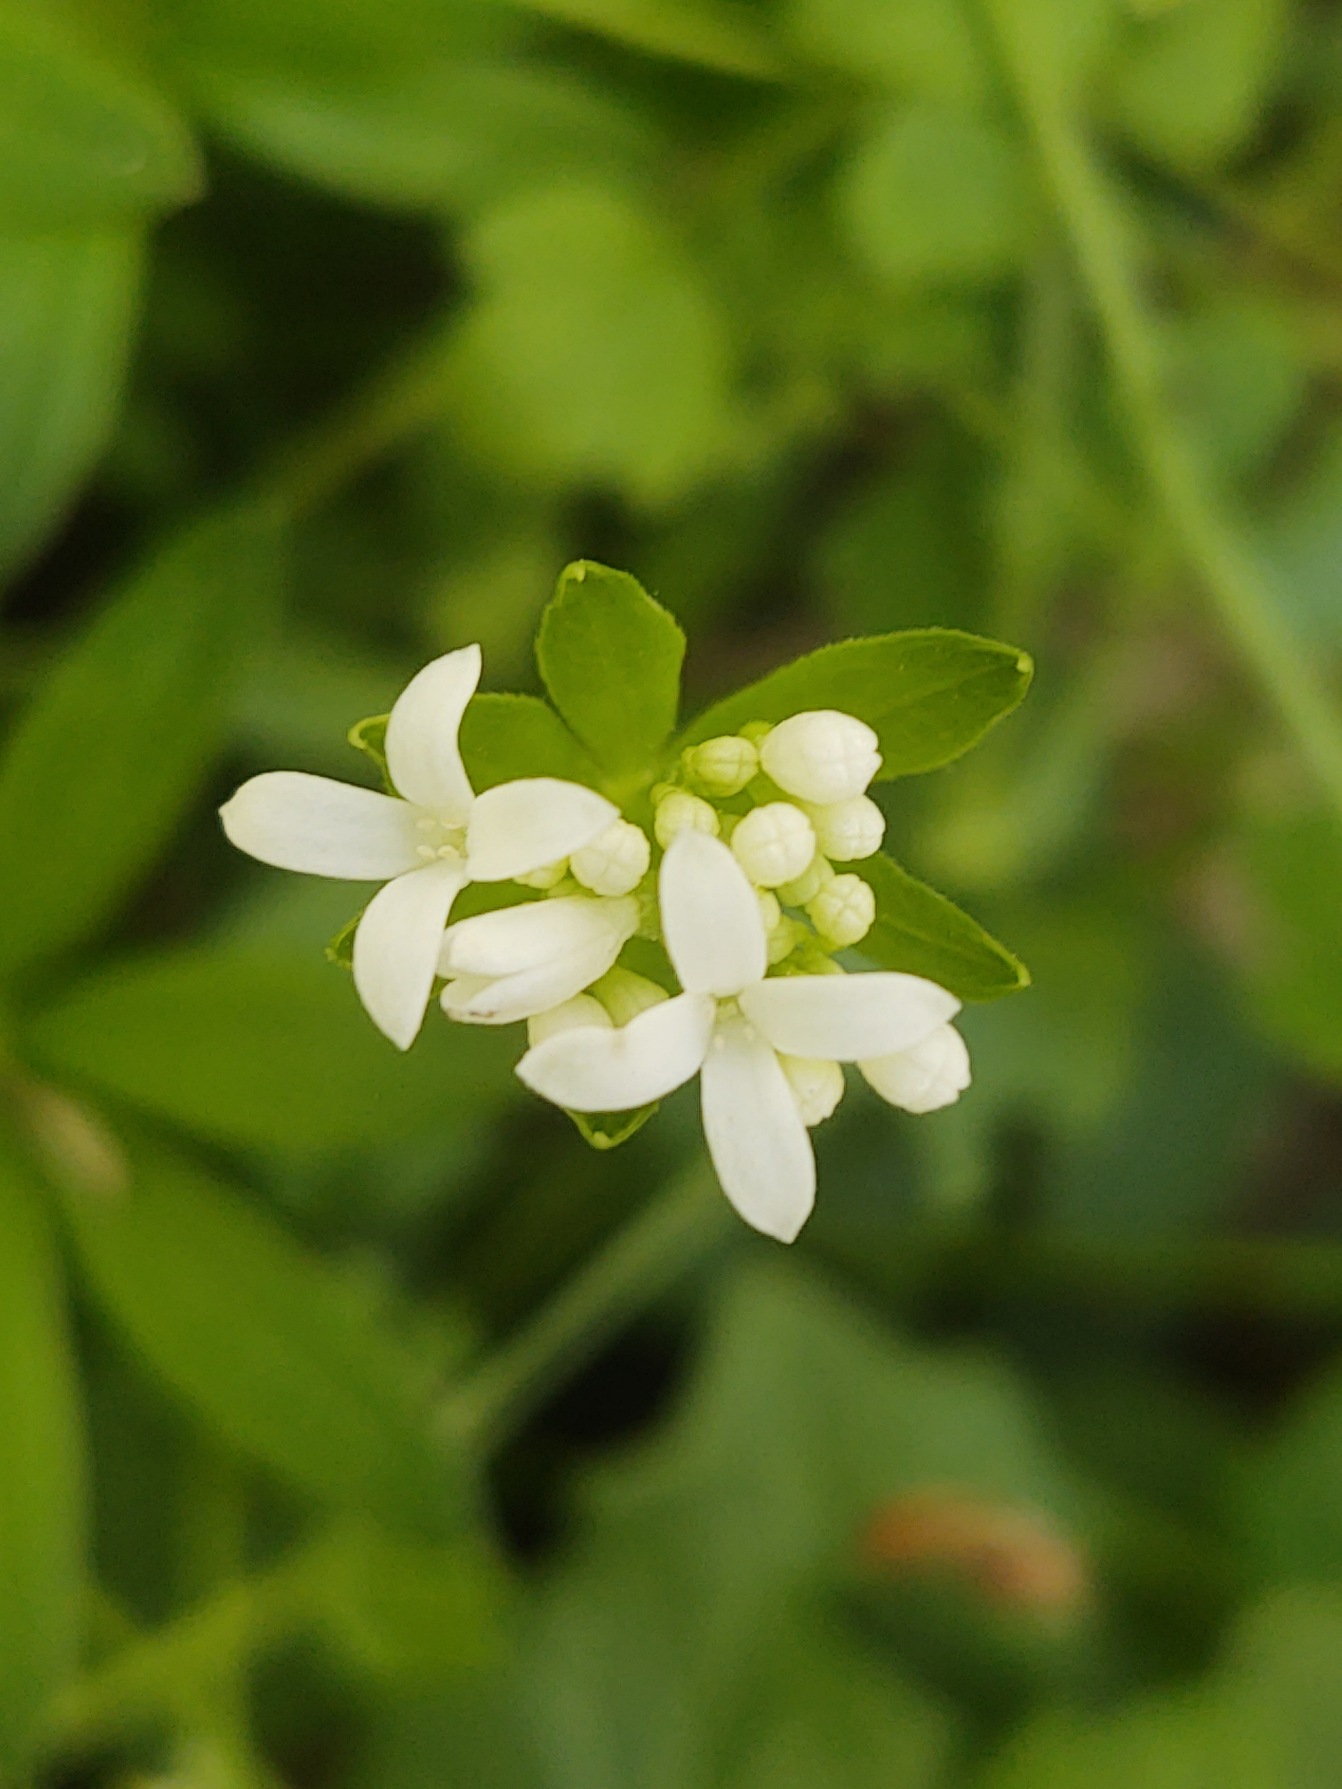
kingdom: Plantae
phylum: Tracheophyta
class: Magnoliopsida
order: Gentianales
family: Rubiaceae
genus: Galium
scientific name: Galium odoratum
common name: Skovmærke
